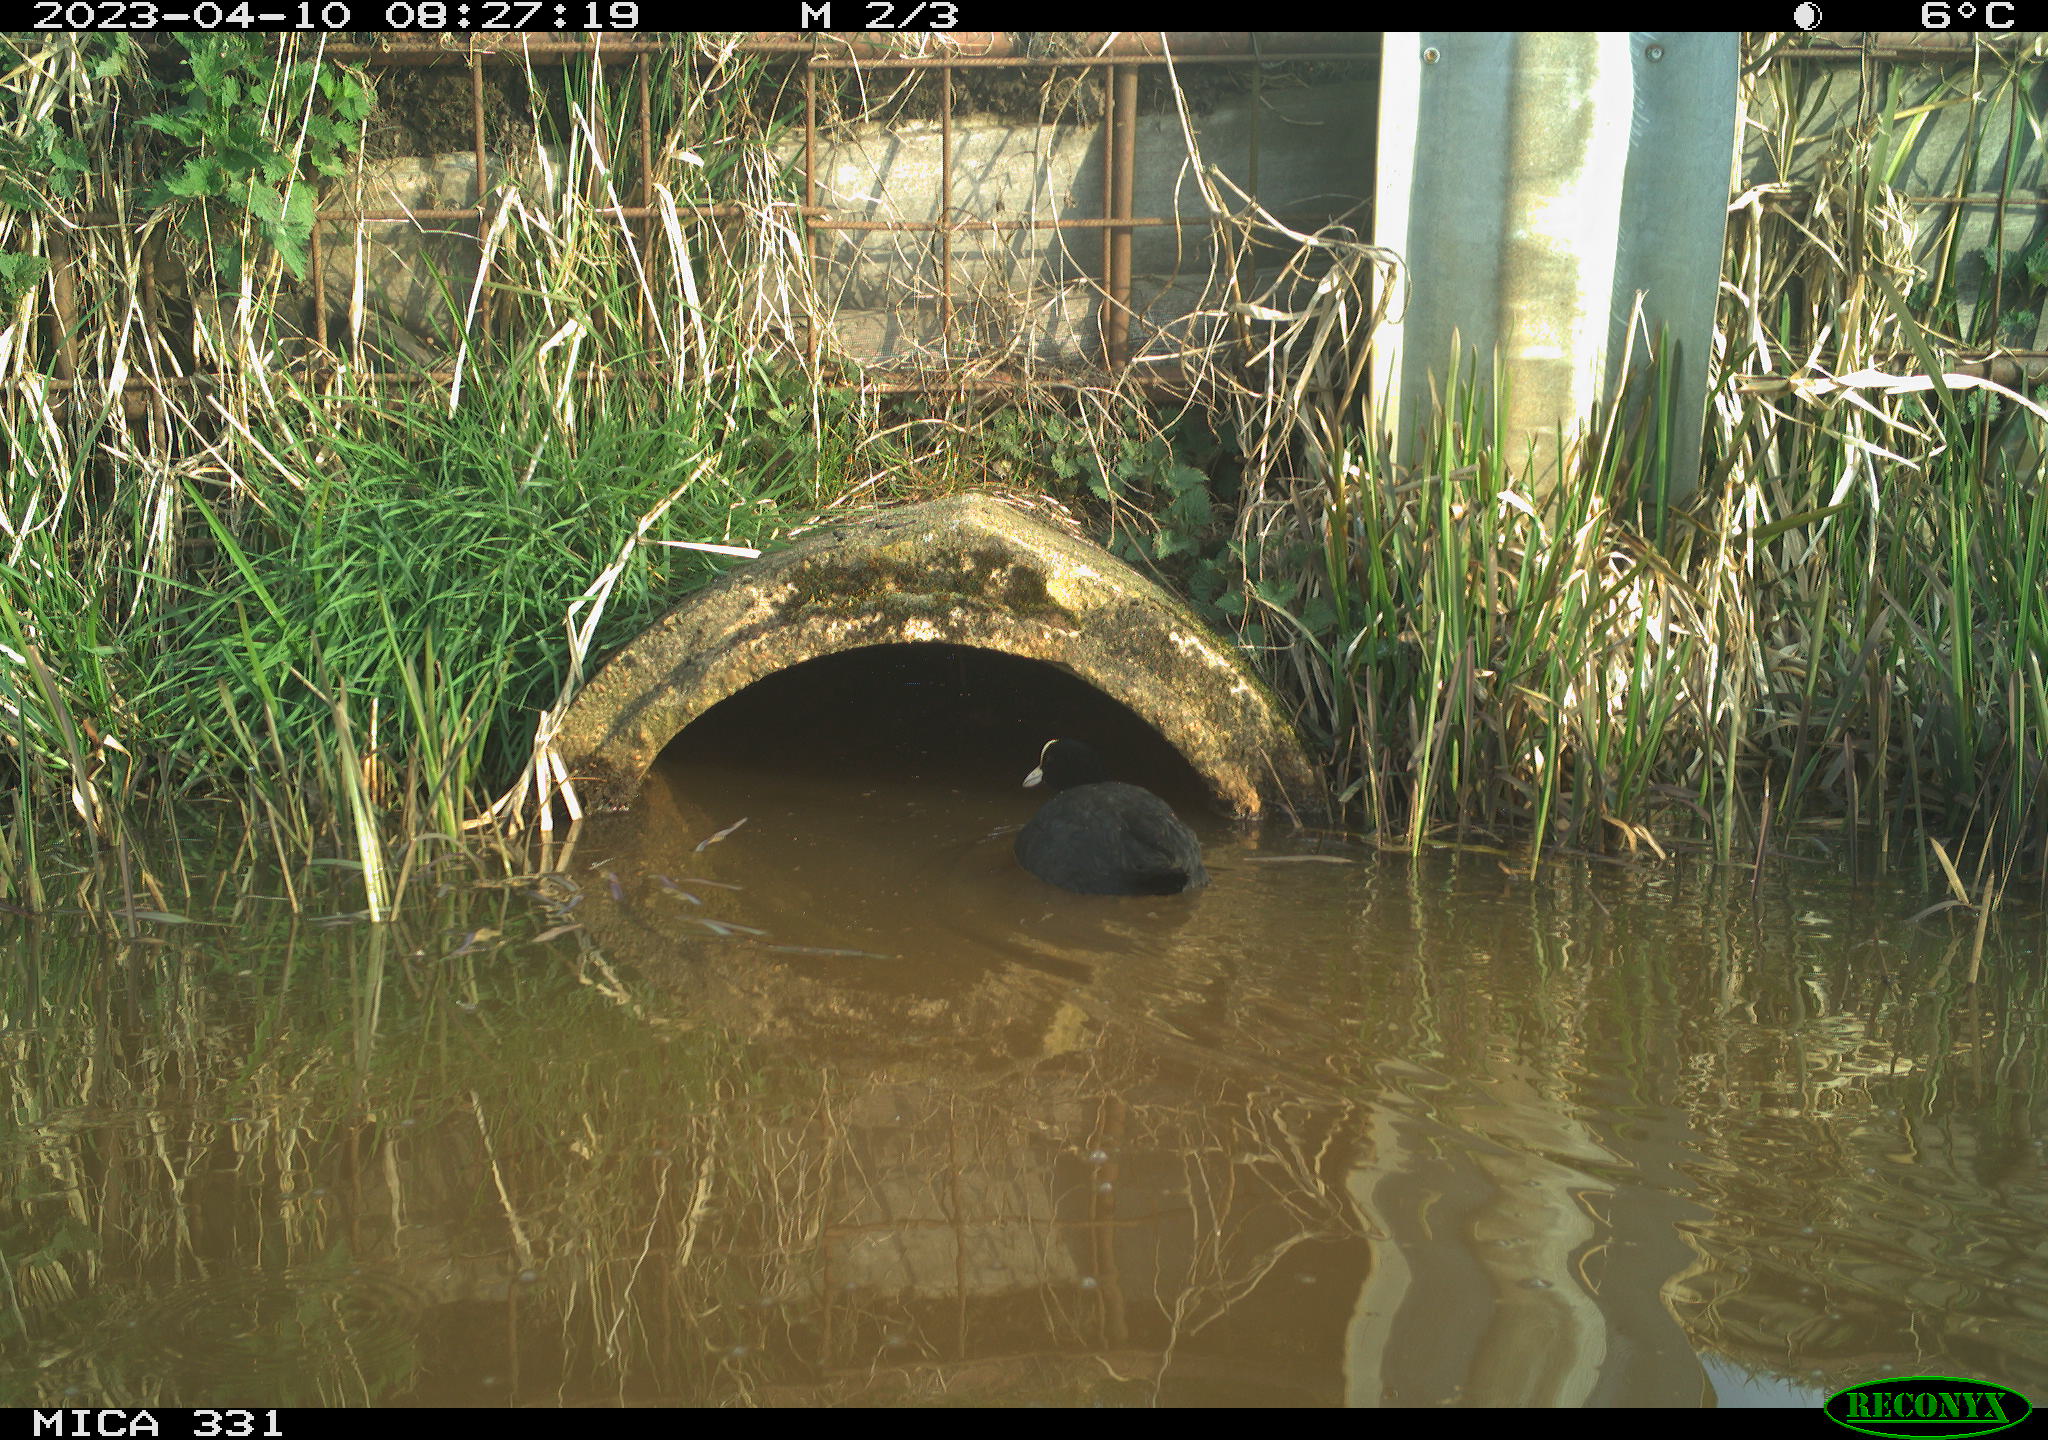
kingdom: Animalia
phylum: Chordata
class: Aves
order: Gruiformes
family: Rallidae
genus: Fulica
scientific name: Fulica atra
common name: Eurasian coot
